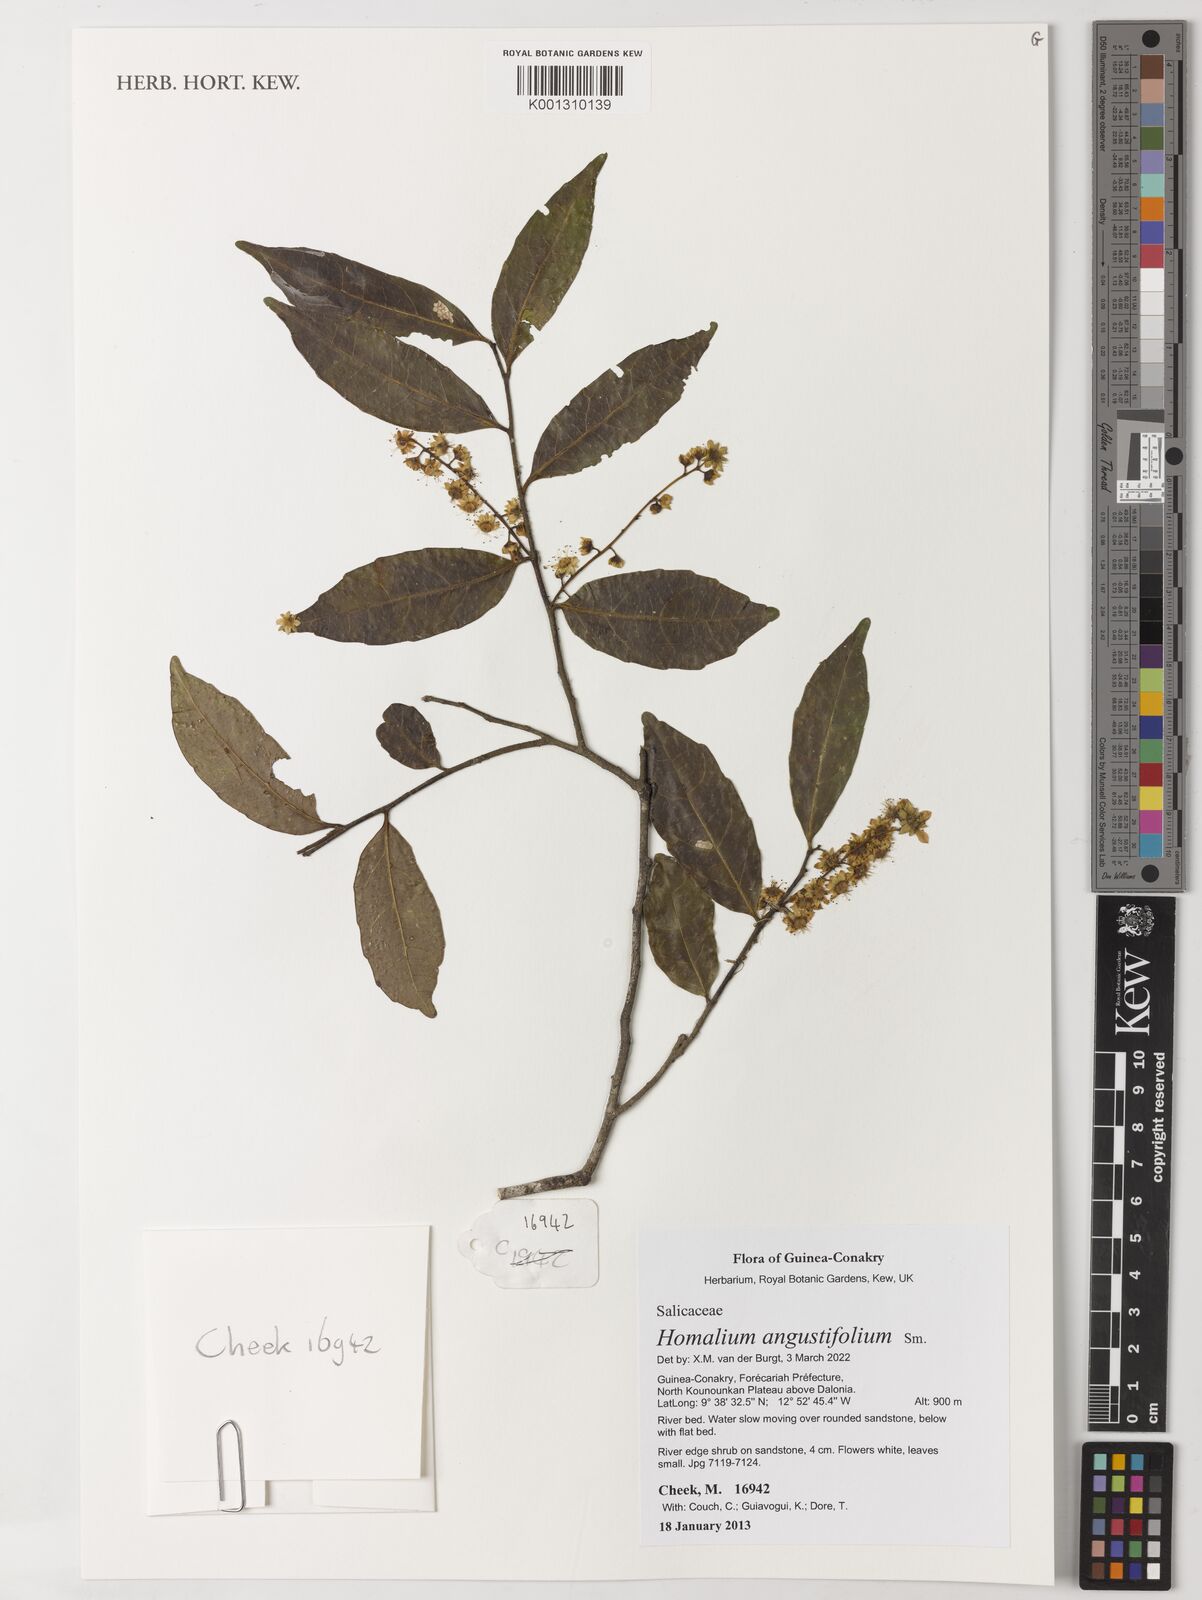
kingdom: Plantae
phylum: Tracheophyta
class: Magnoliopsida
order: Malpighiales
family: Salicaceae
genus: Homalium
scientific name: Homalium angustifolium
